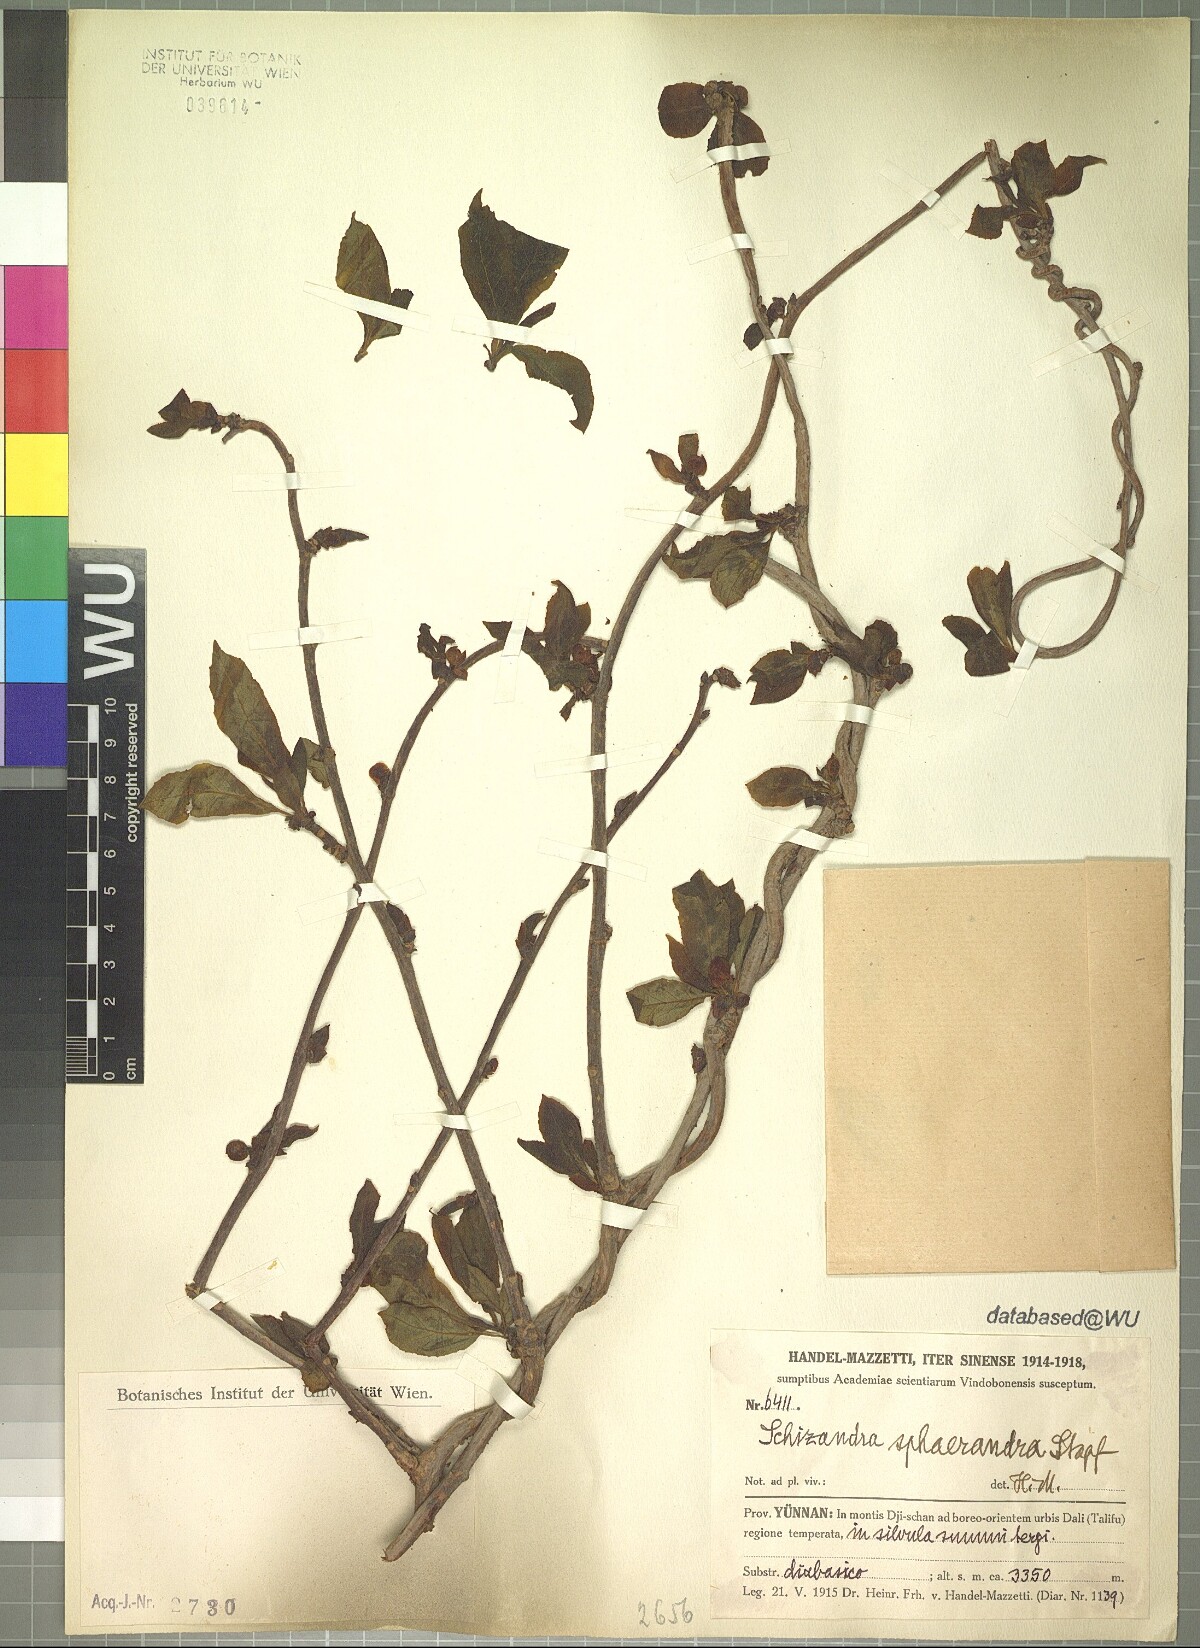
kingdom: Plantae
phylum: Tracheophyta
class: Magnoliopsida
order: Austrobaileyales
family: Schisandraceae
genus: Schisandra
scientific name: Schisandra sphaerandra
